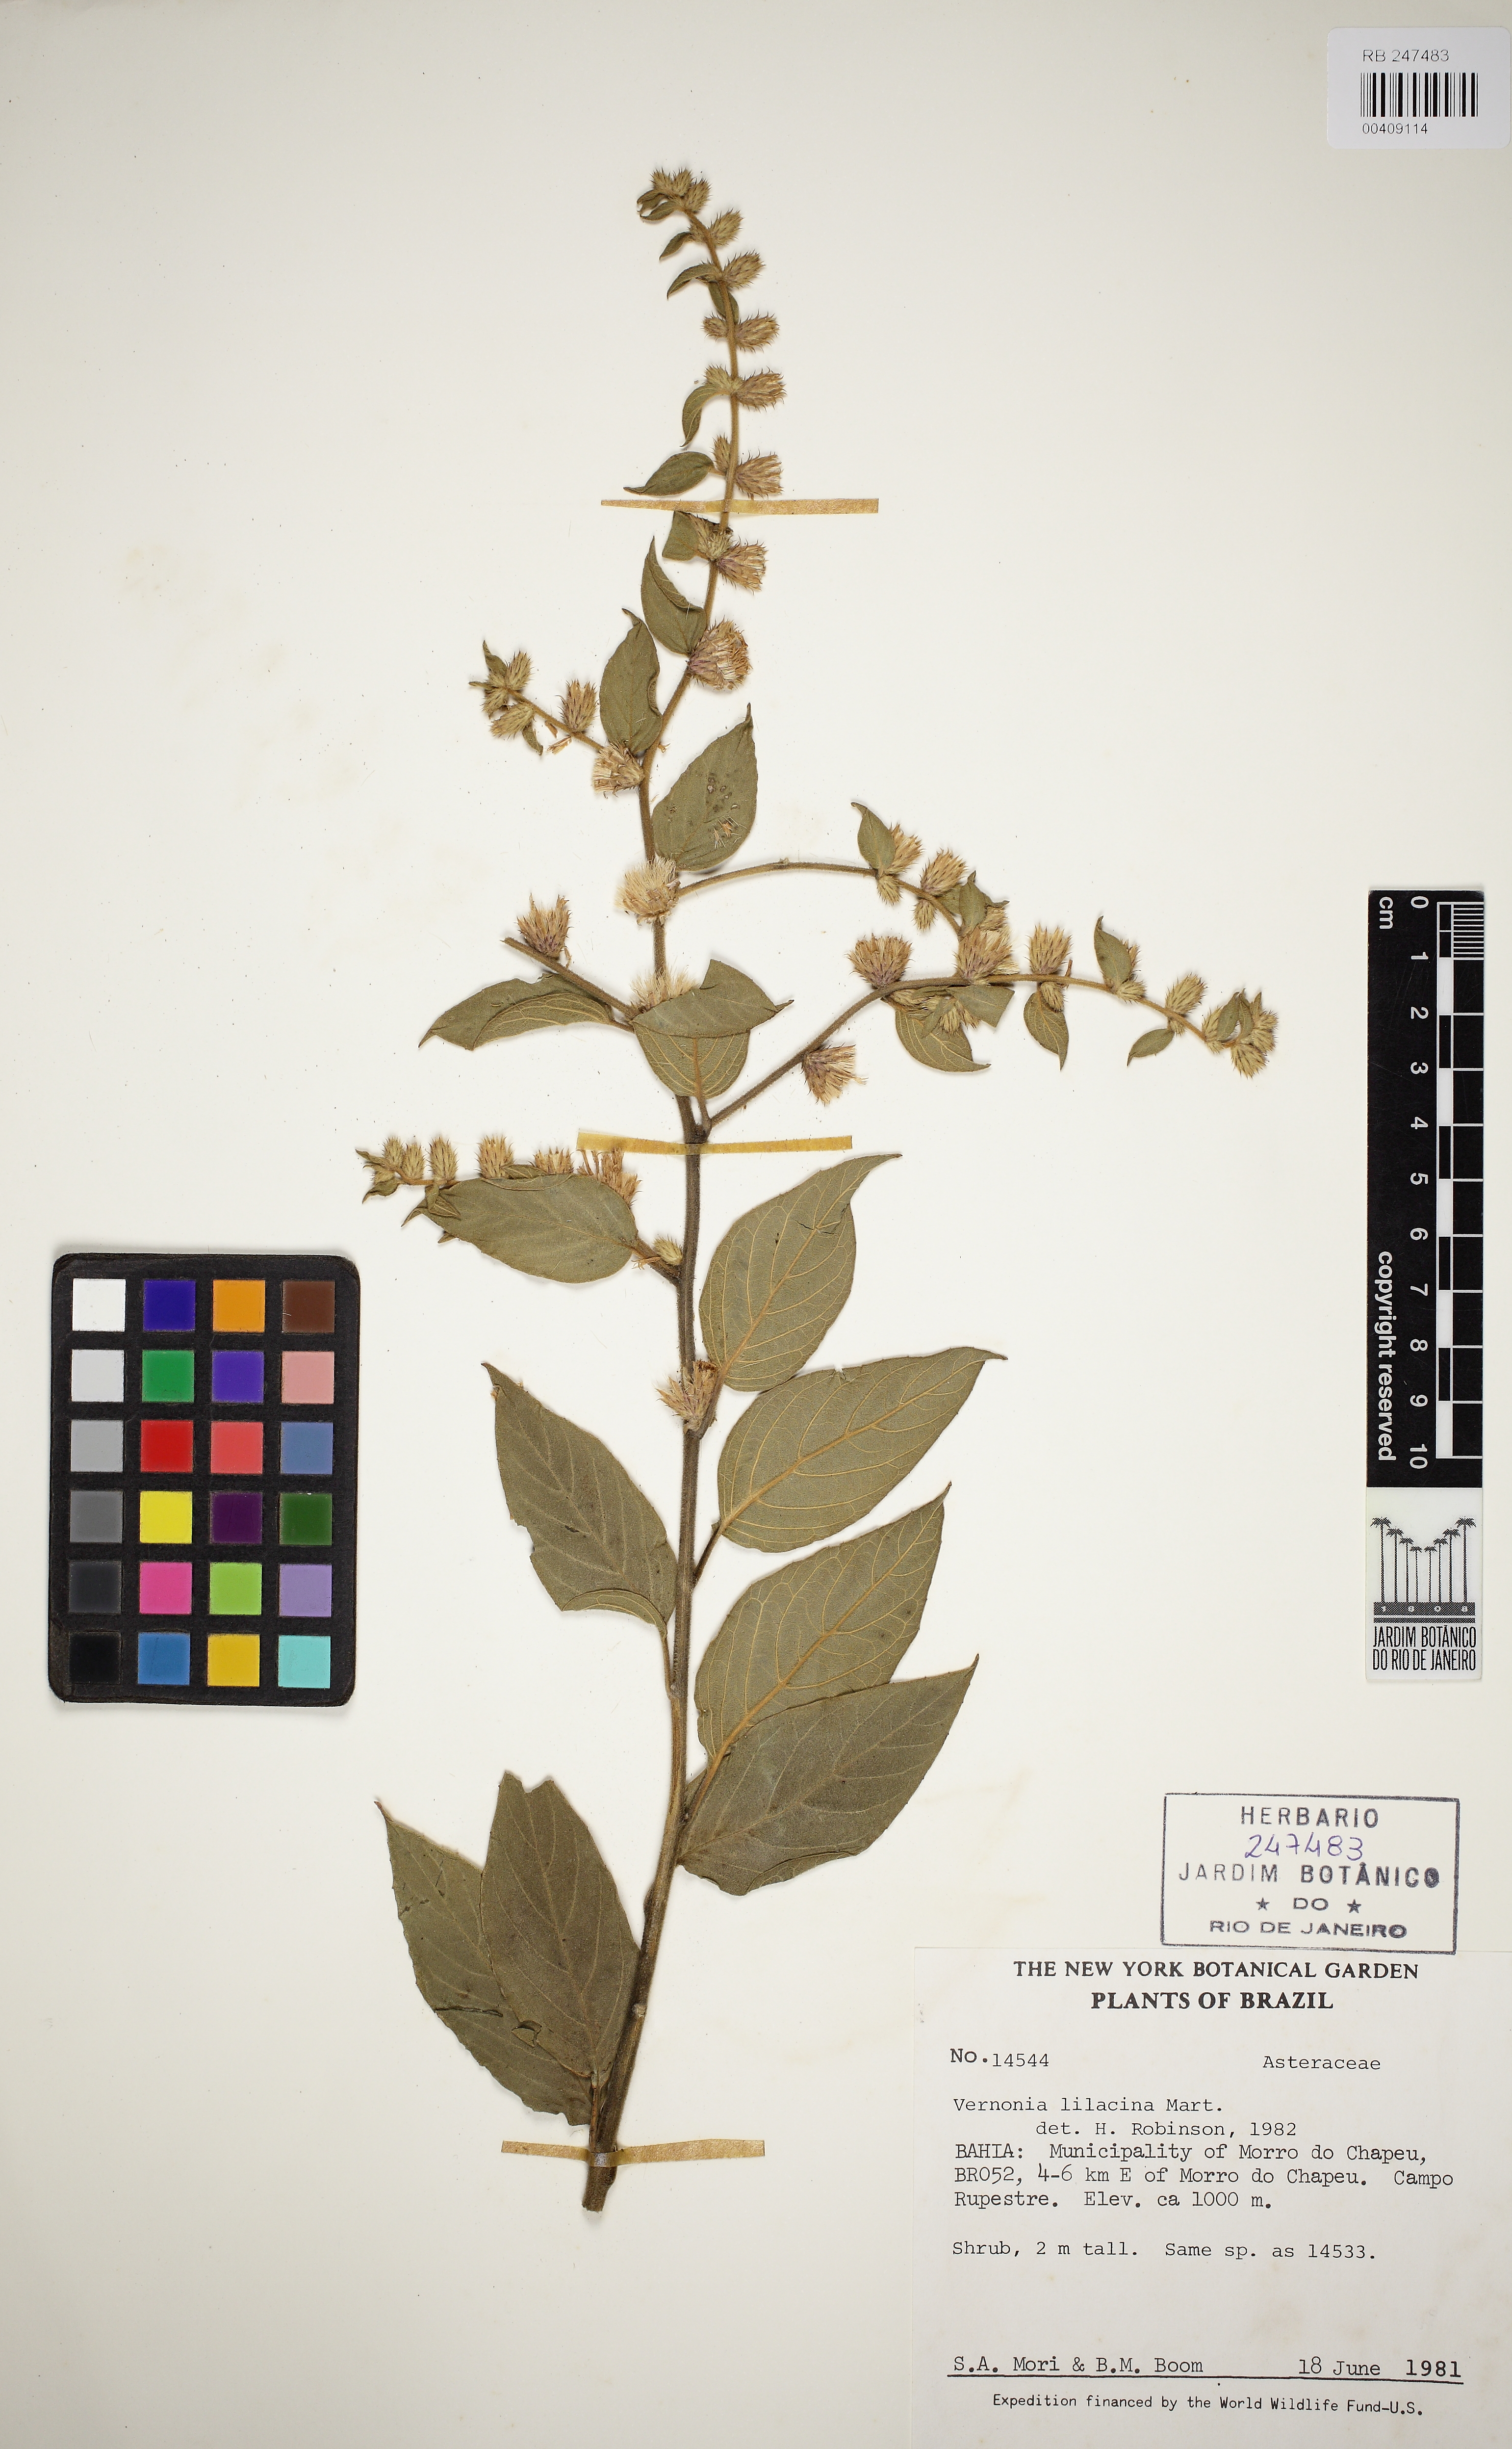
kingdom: Plantae
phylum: Tracheophyta
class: Magnoliopsida
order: Asterales
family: Asteraceae
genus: Lepidaploa
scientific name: Lepidaploa lilacina
